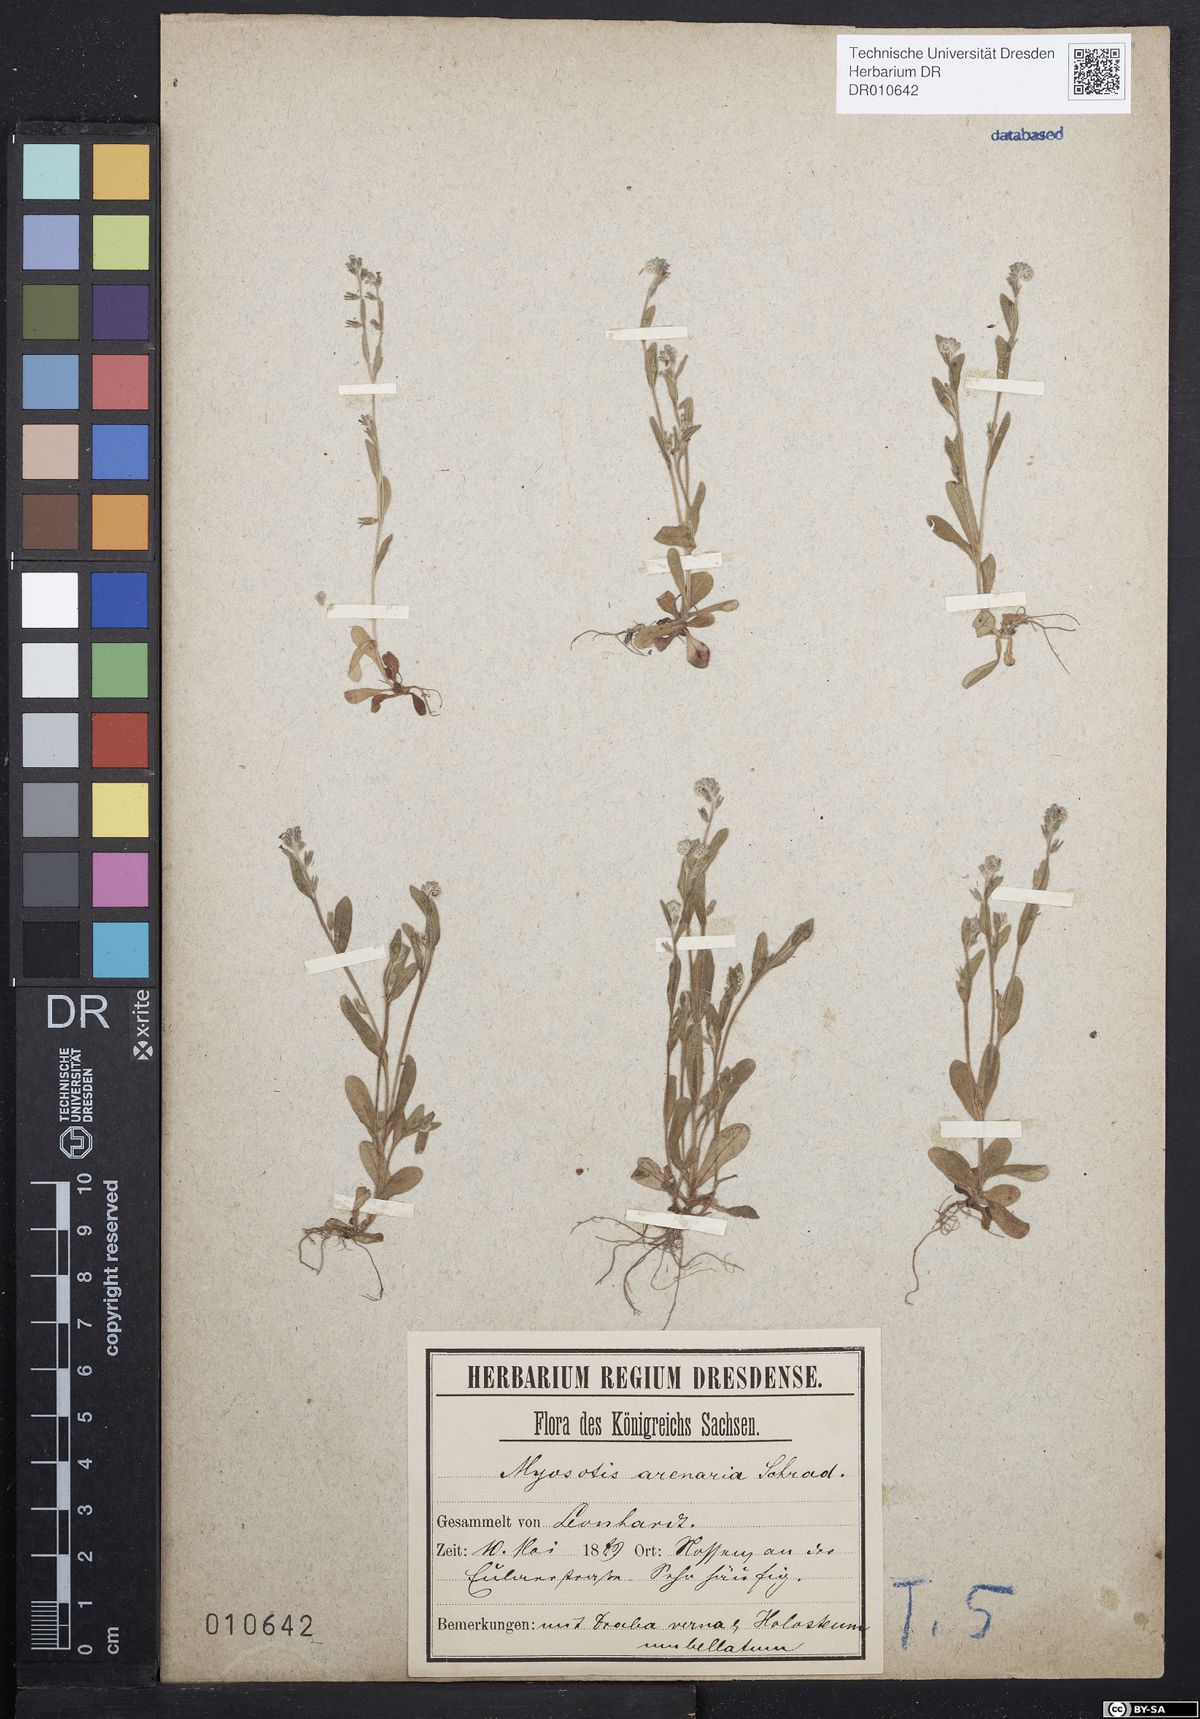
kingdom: Plantae
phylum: Tracheophyta
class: Magnoliopsida
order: Boraginales
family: Boraginaceae
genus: Myosotis
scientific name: Myosotis stricta
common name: Strict forget-me-not
